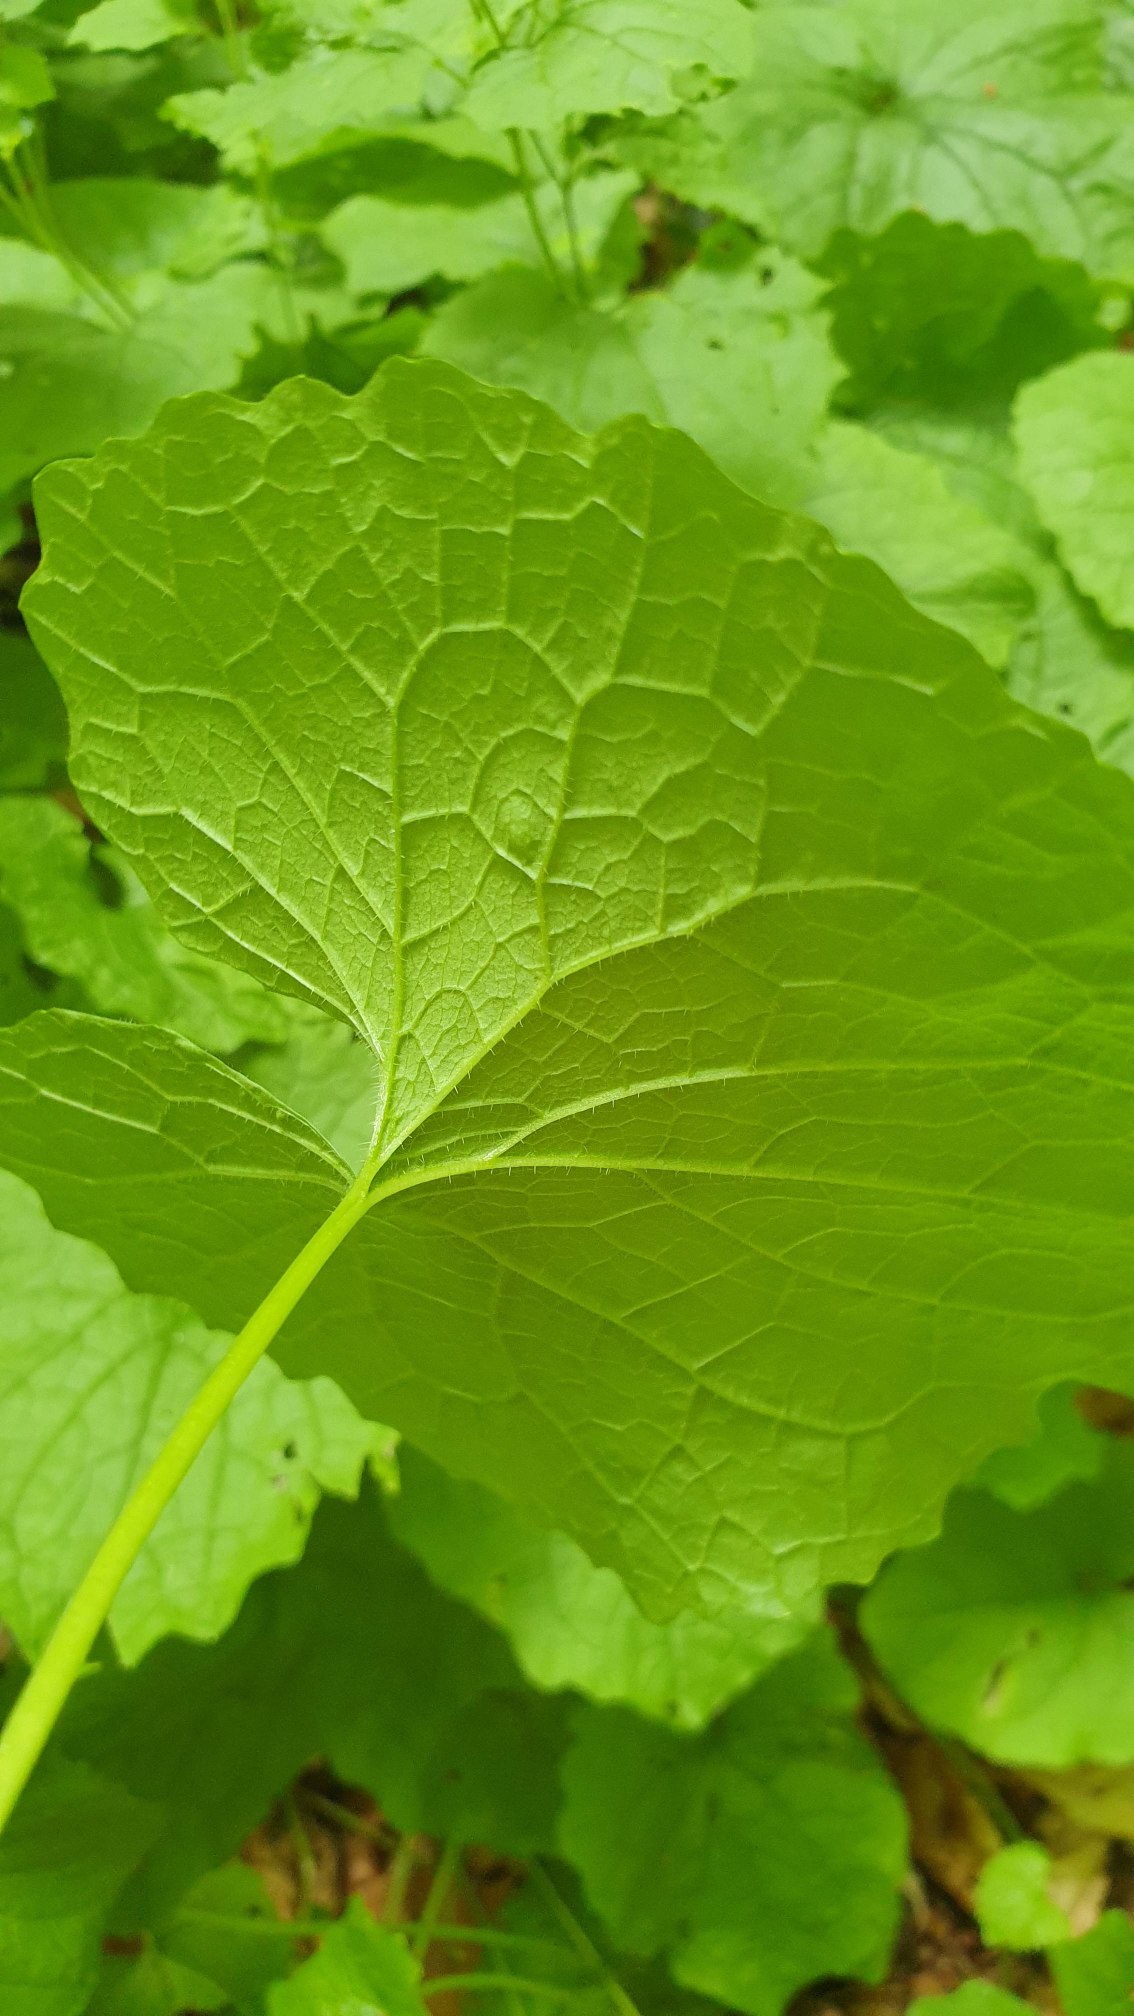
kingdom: Plantae
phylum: Tracheophyta
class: Magnoliopsida
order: Brassicales
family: Brassicaceae
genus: Alliaria
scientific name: Alliaria petiolata
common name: Løgkarse
